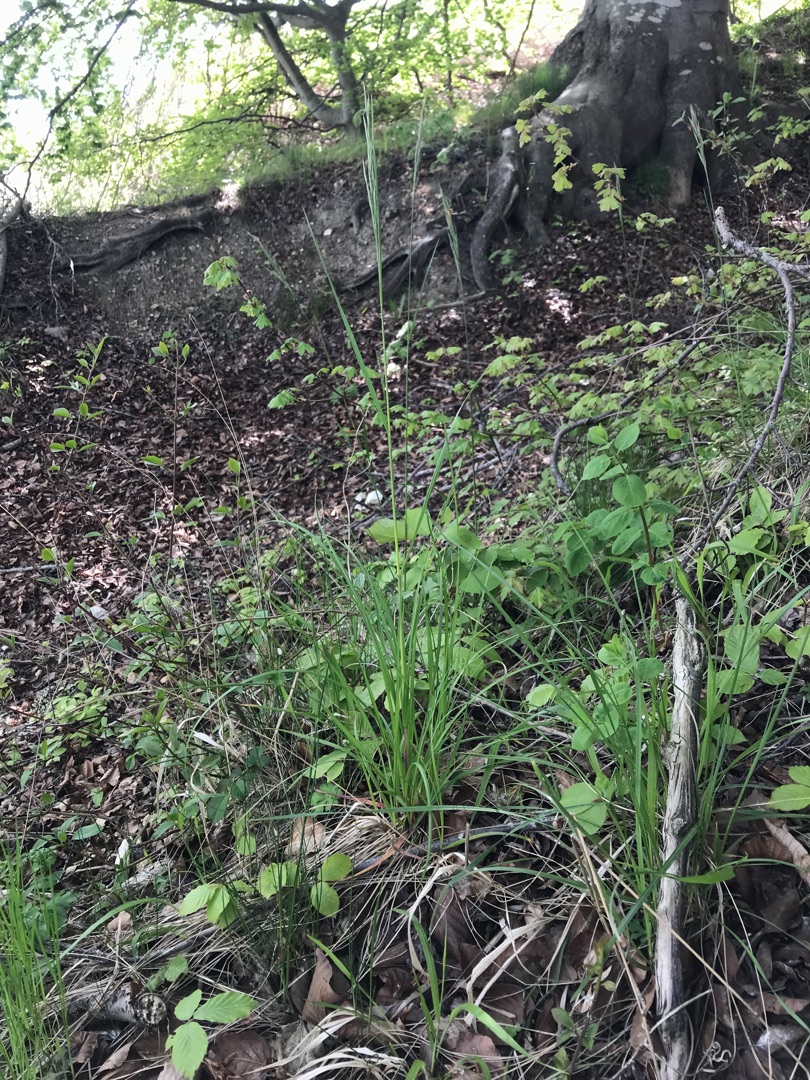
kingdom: Plantae
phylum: Tracheophyta
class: Liliopsida
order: Poales
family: Poaceae
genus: Festuca
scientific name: Festuca altissima
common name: Skov-svingel
